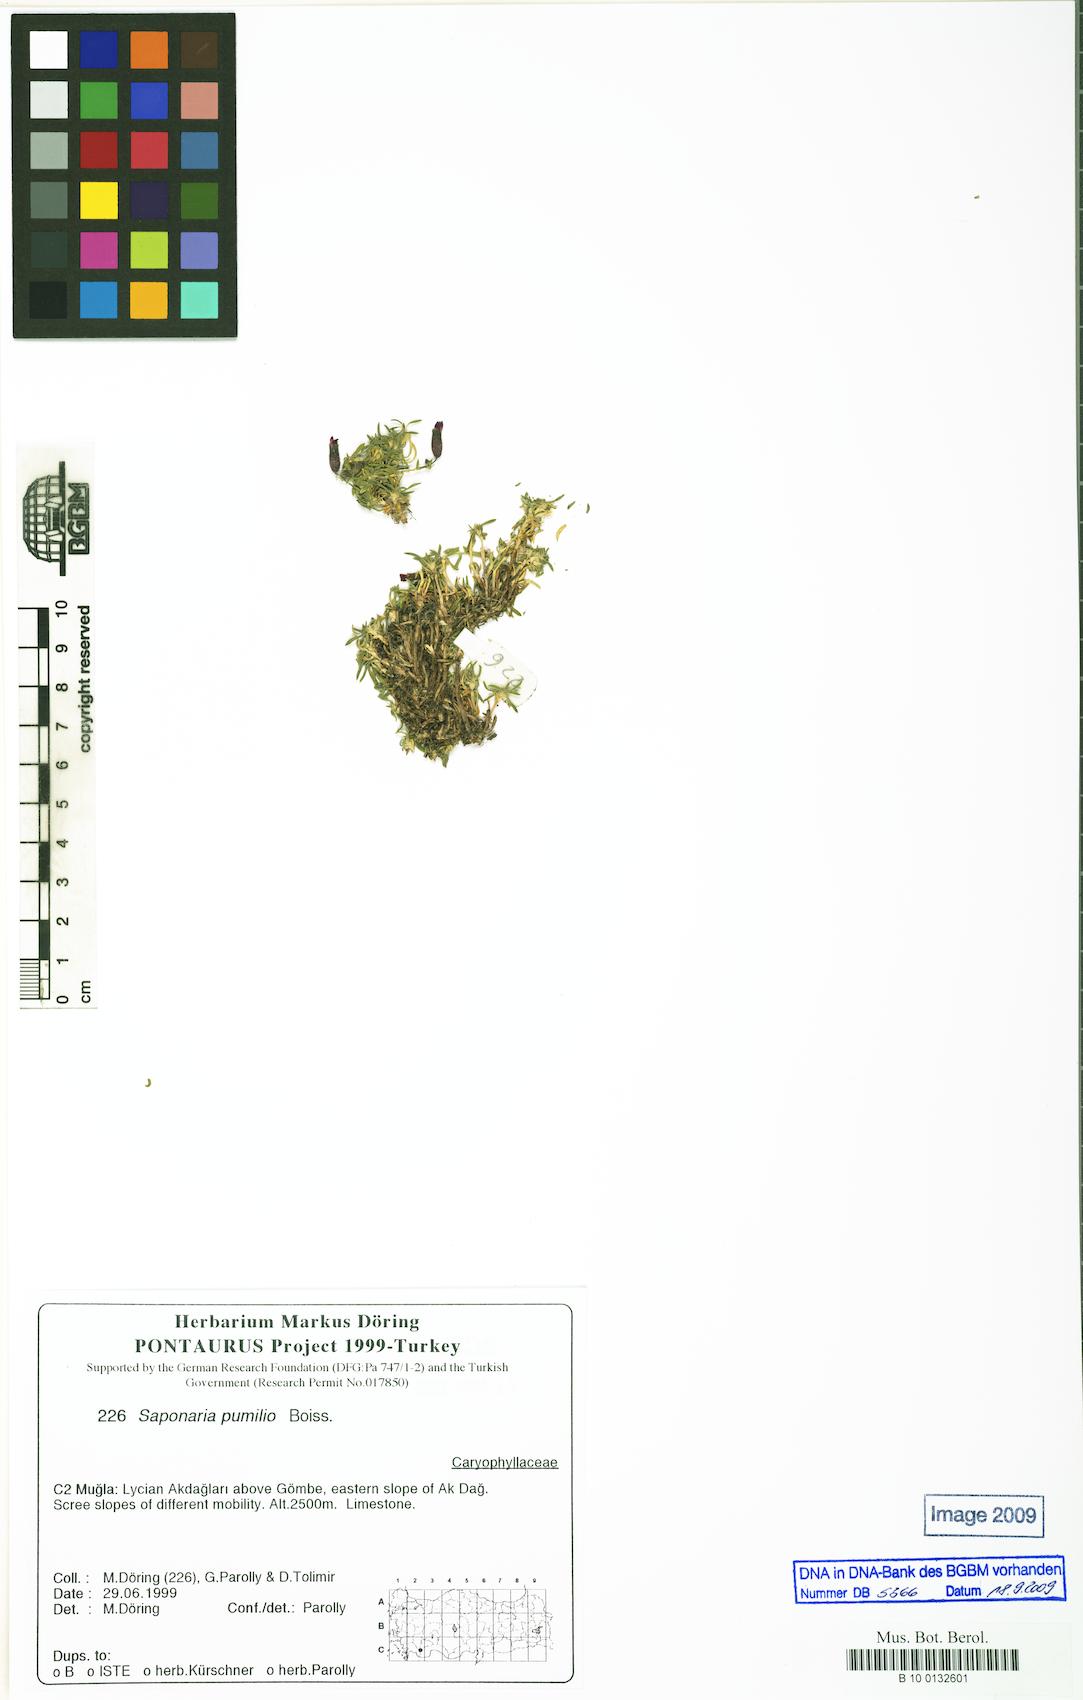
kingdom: Plantae
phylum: Tracheophyta
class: Magnoliopsida
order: Caryophyllales
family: Caryophyllaceae
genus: Saponaria
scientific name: Saponaria pumilio
